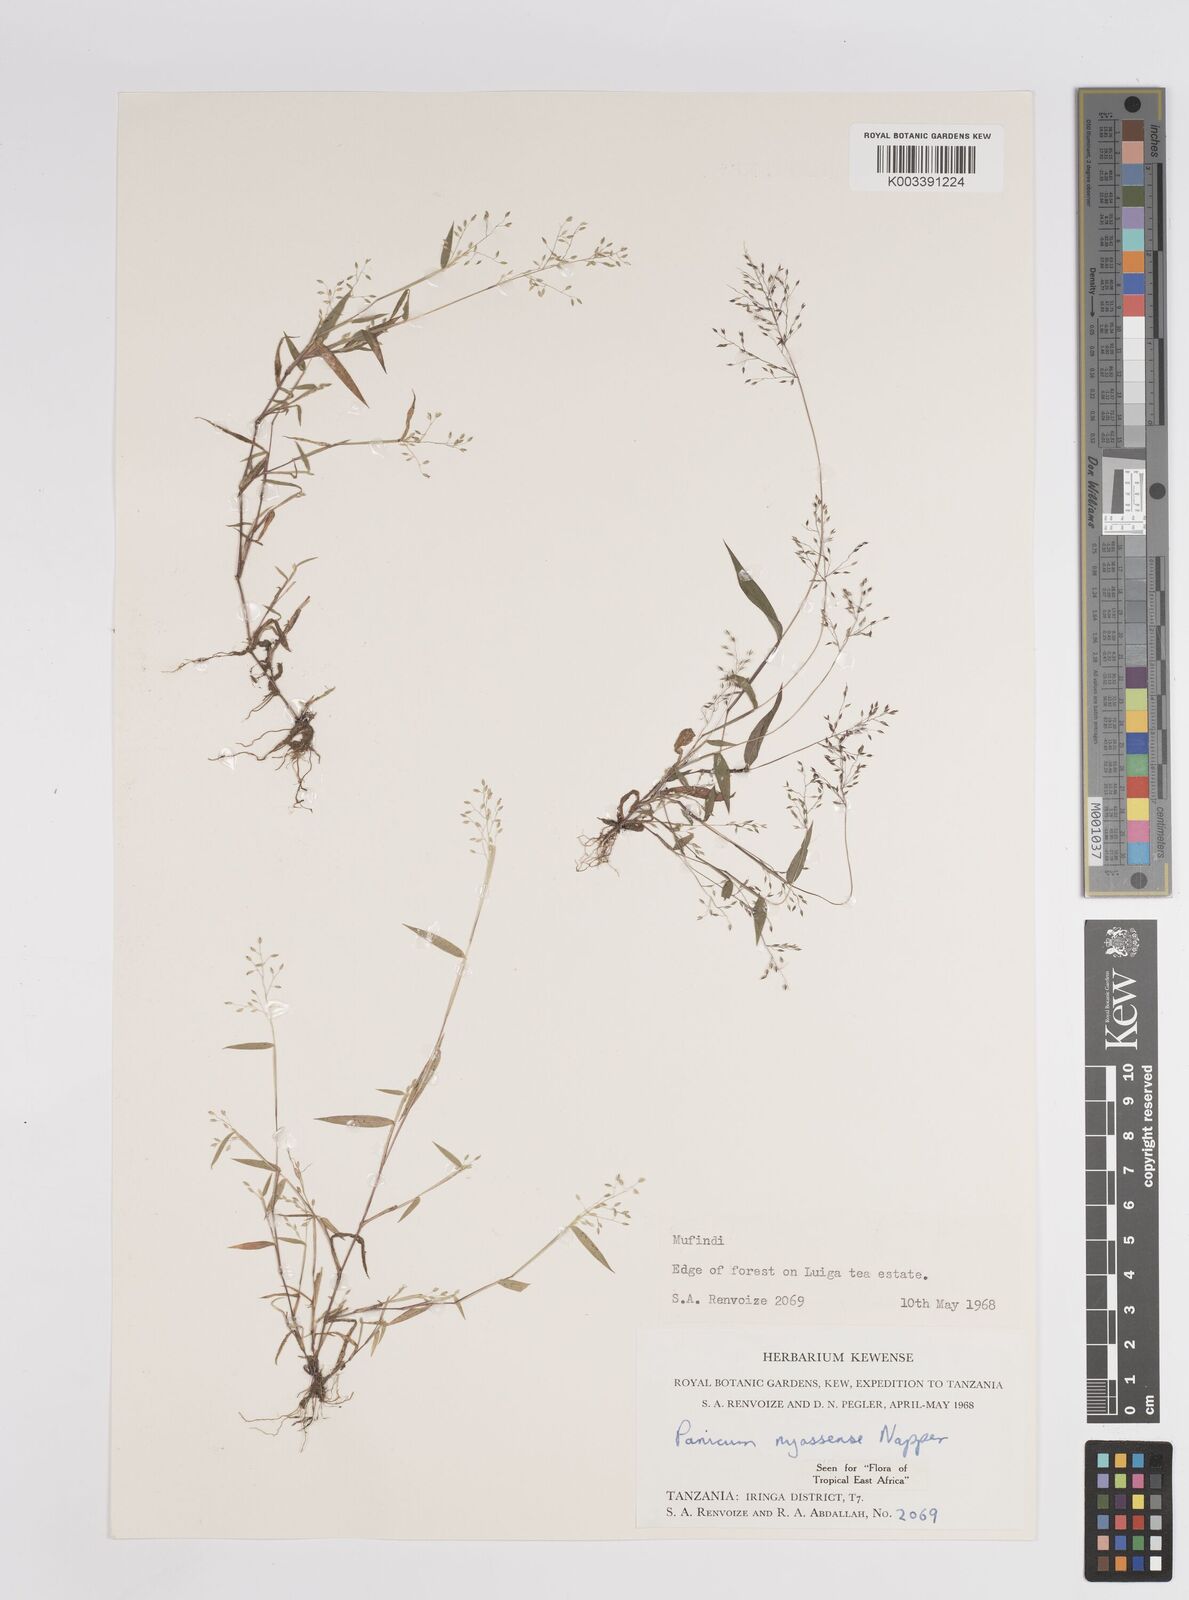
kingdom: Plantae
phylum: Tracheophyta
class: Liliopsida
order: Poales
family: Poaceae
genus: Panicum
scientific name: Panicum delicatulum
